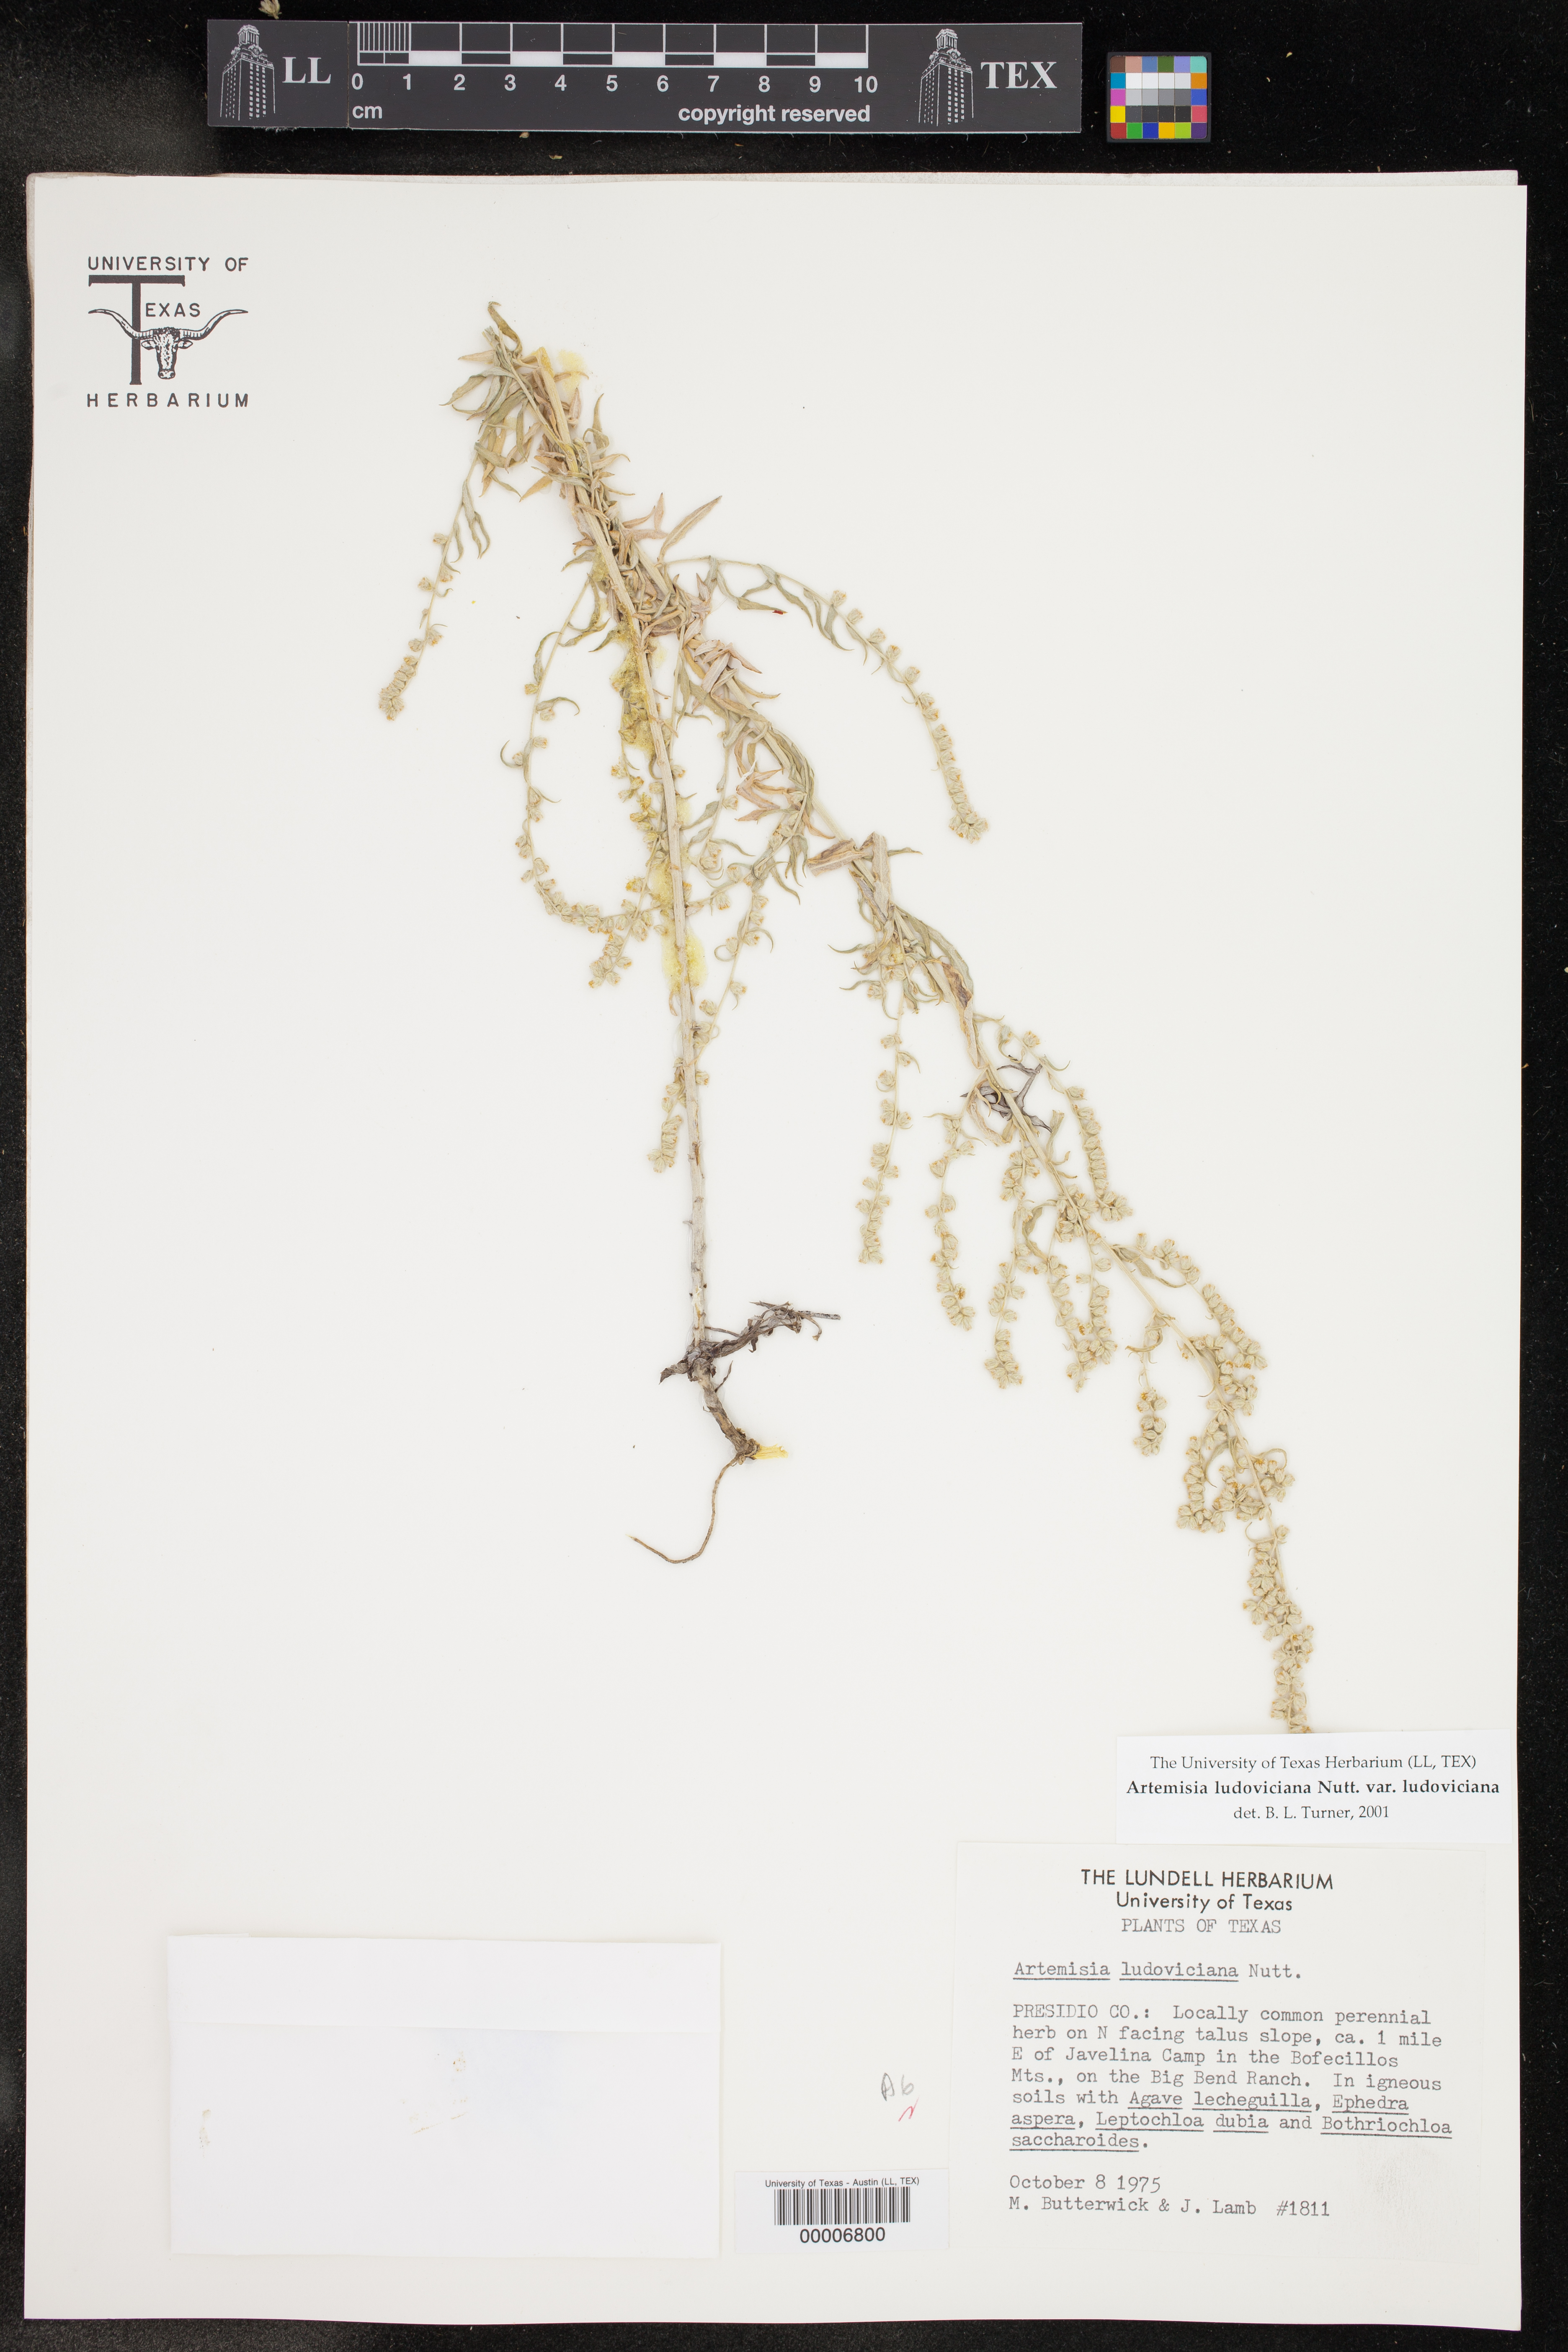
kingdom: Plantae
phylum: Tracheophyta
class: Magnoliopsida
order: Asterales
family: Asteraceae
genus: Artemisia
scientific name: Artemisia ludoviciana
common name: Western mugwort
